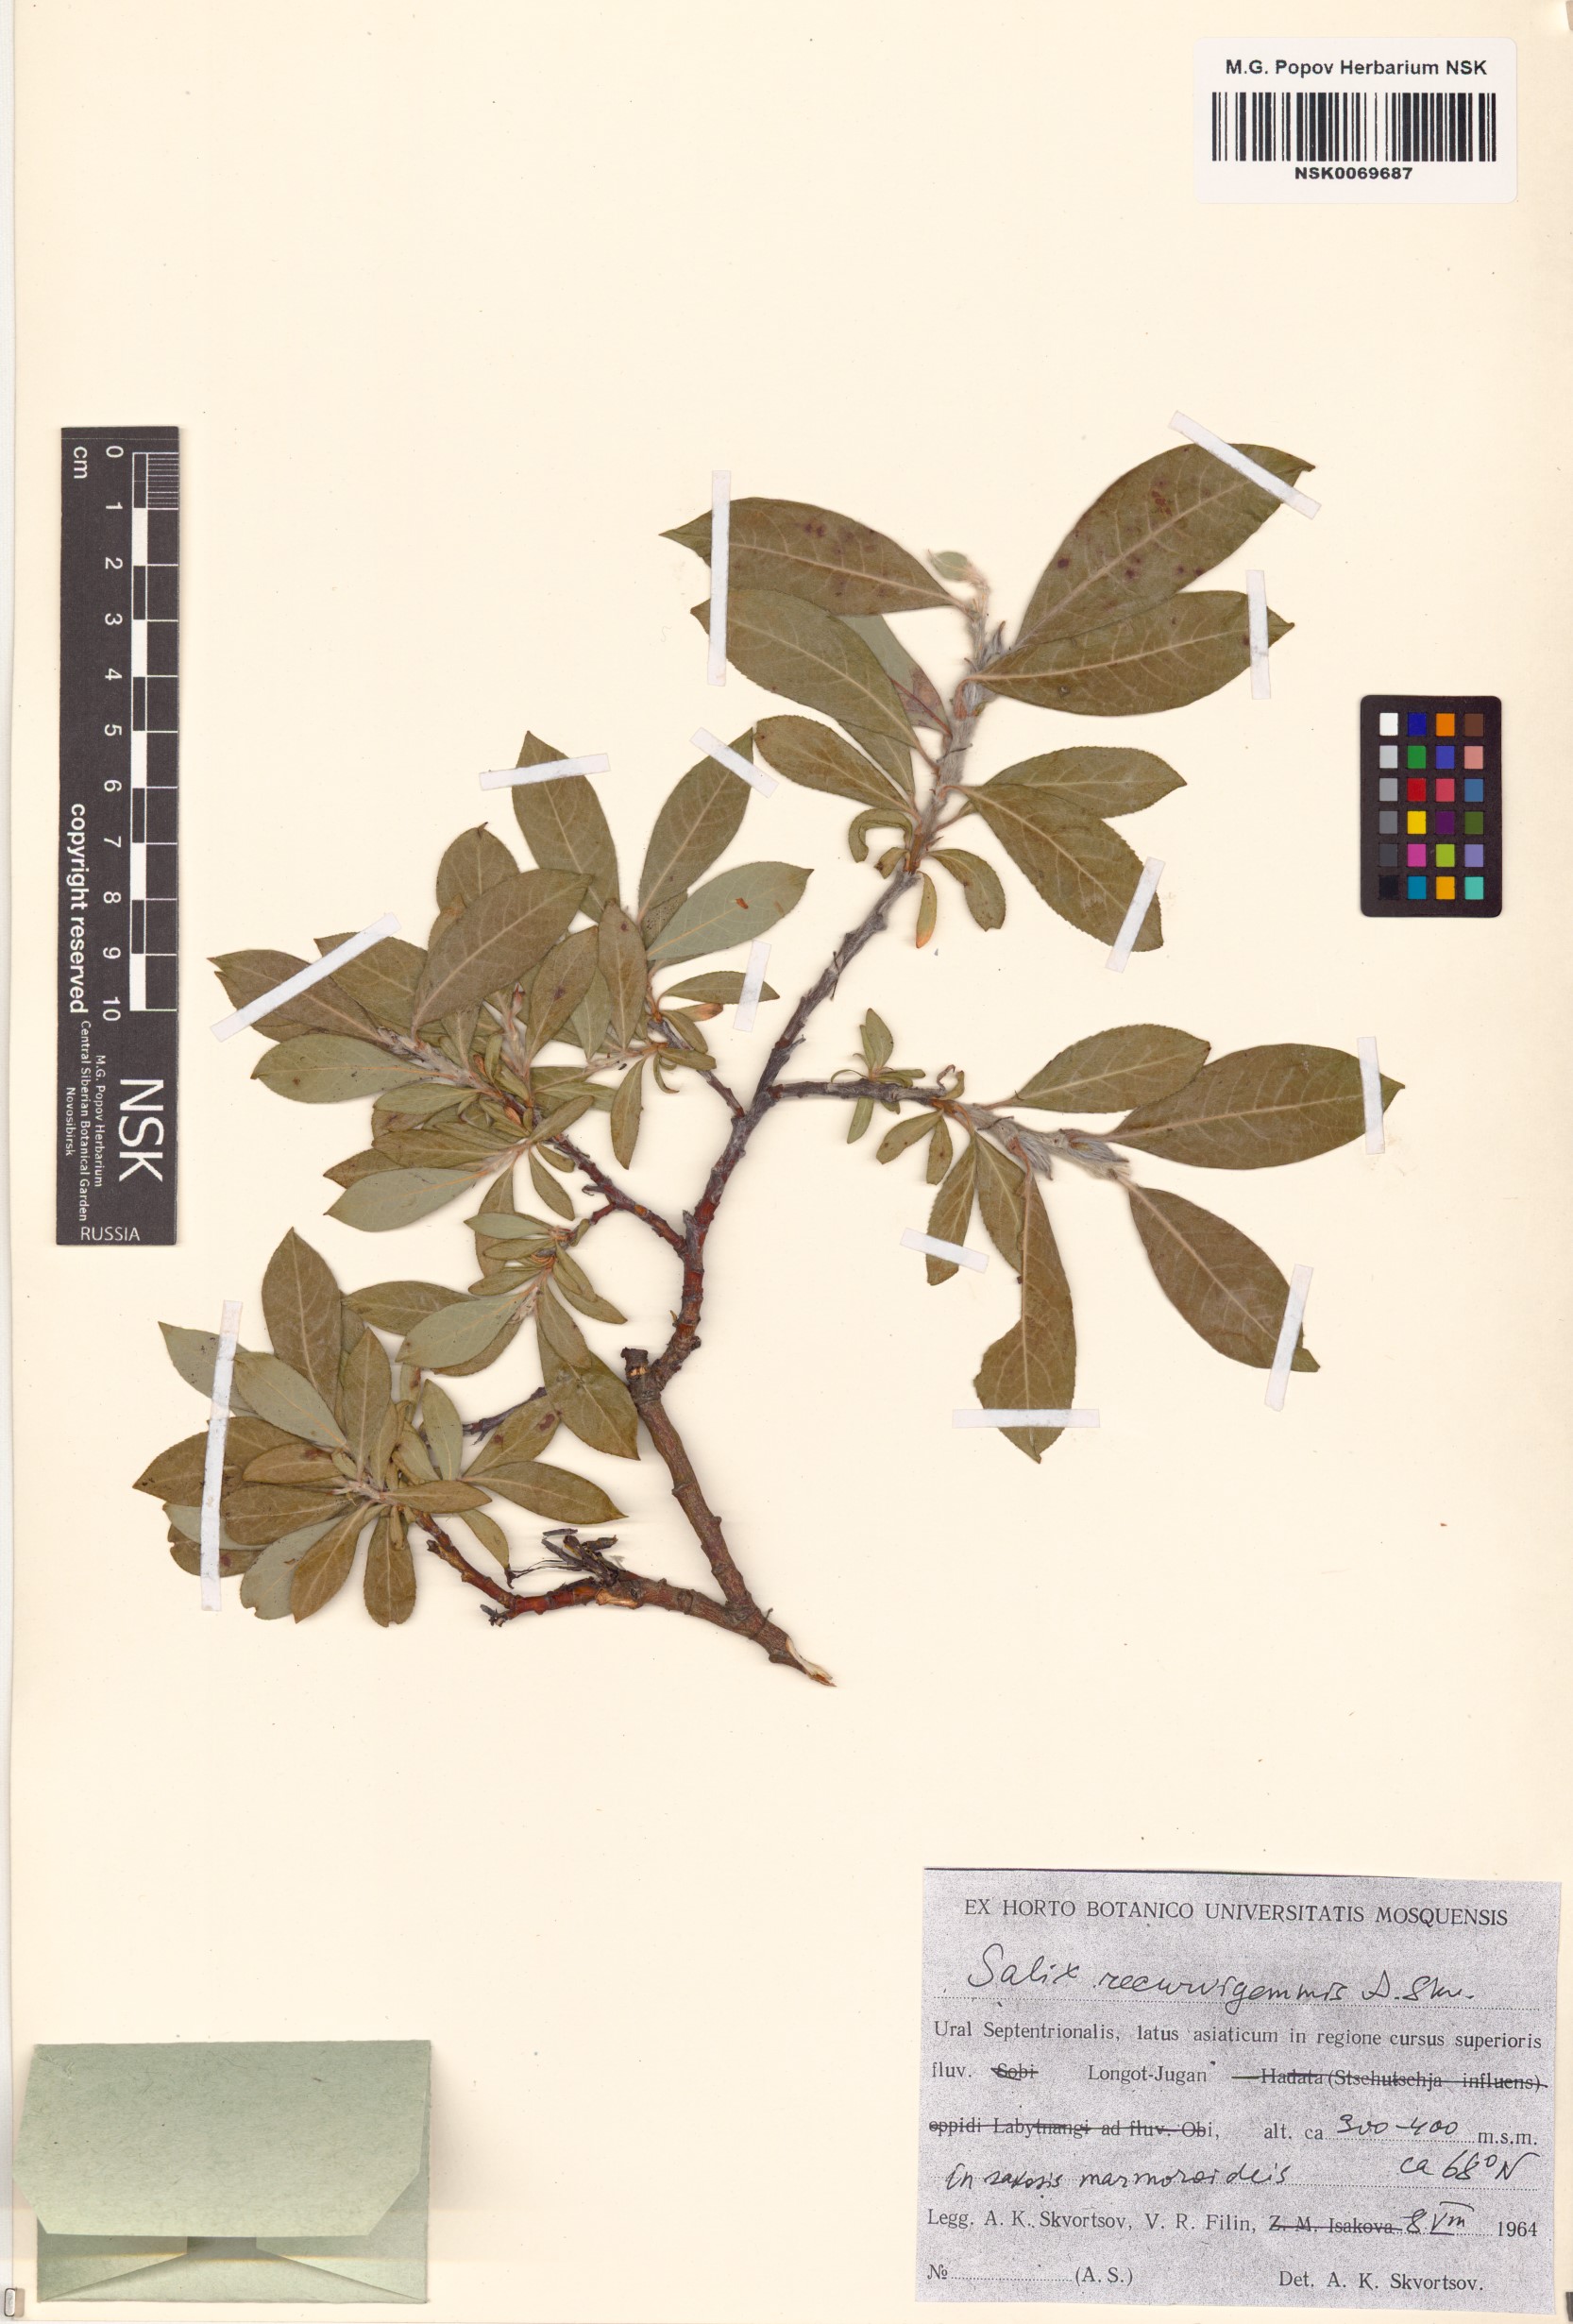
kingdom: Plantae
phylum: Tracheophyta
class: Magnoliopsida
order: Malpighiales
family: Salicaceae
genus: Salix
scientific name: Salix recurvigemmata
